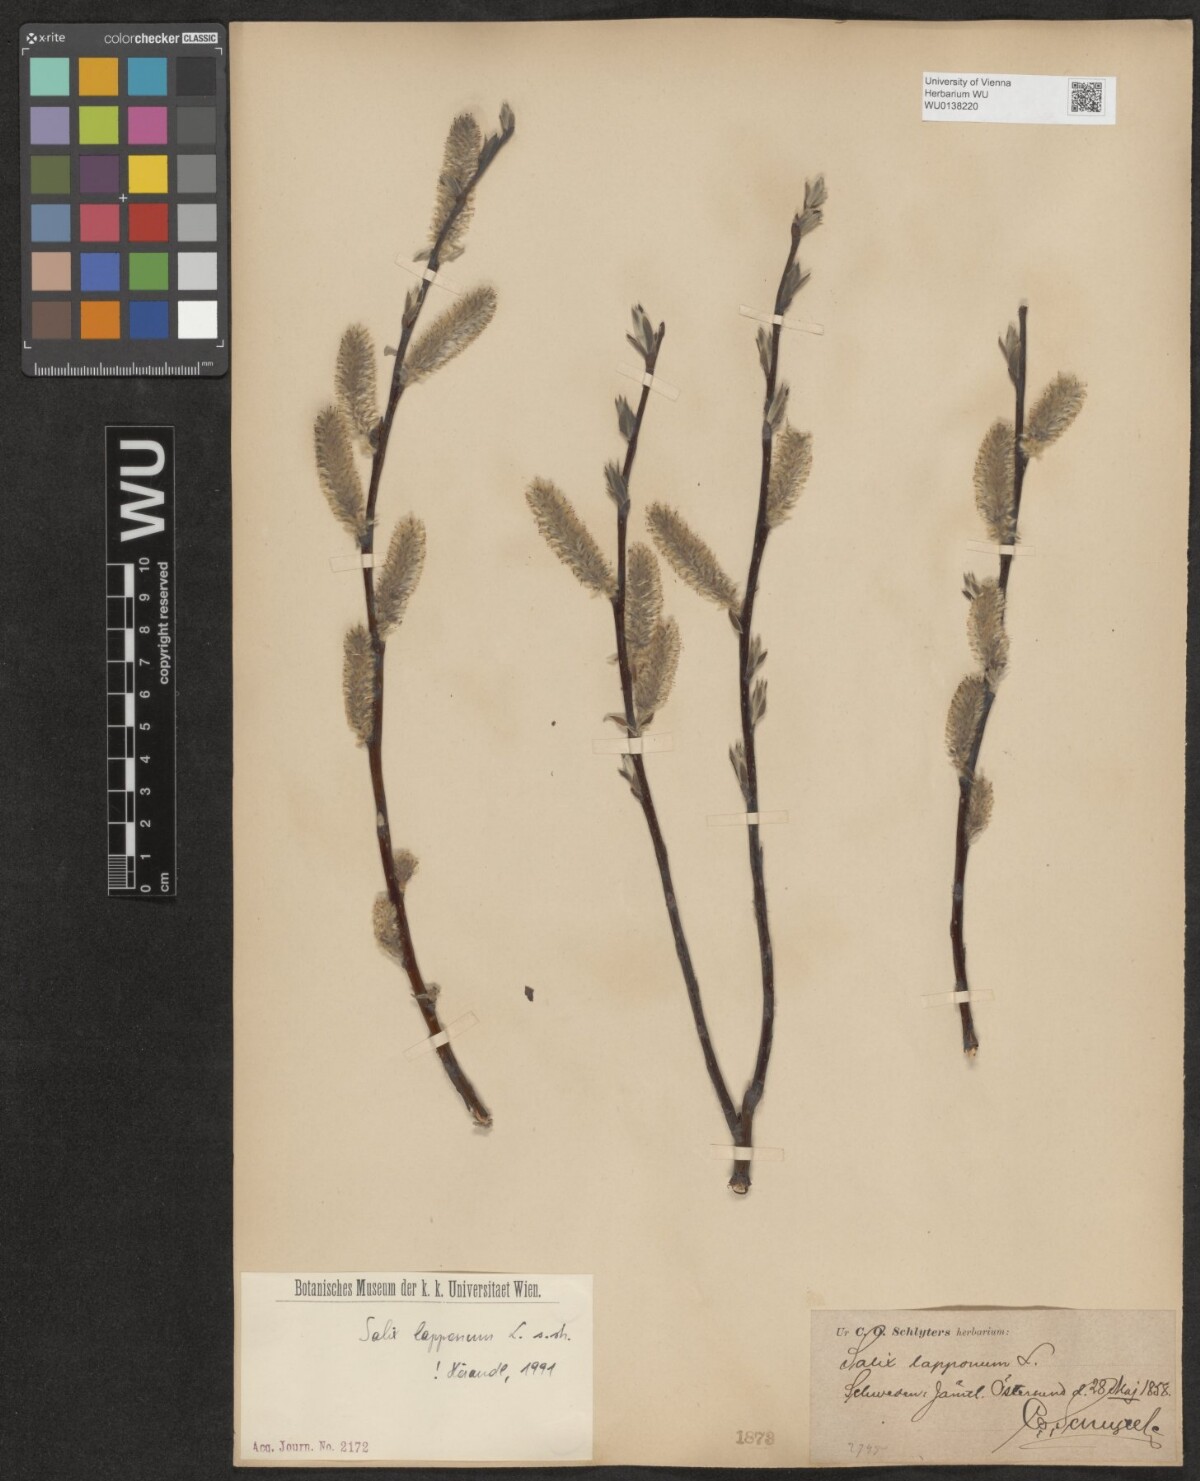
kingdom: Plantae
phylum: Tracheophyta
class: Magnoliopsida
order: Malpighiales
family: Salicaceae
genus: Salix
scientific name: Salix lapponum
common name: Downy willow
